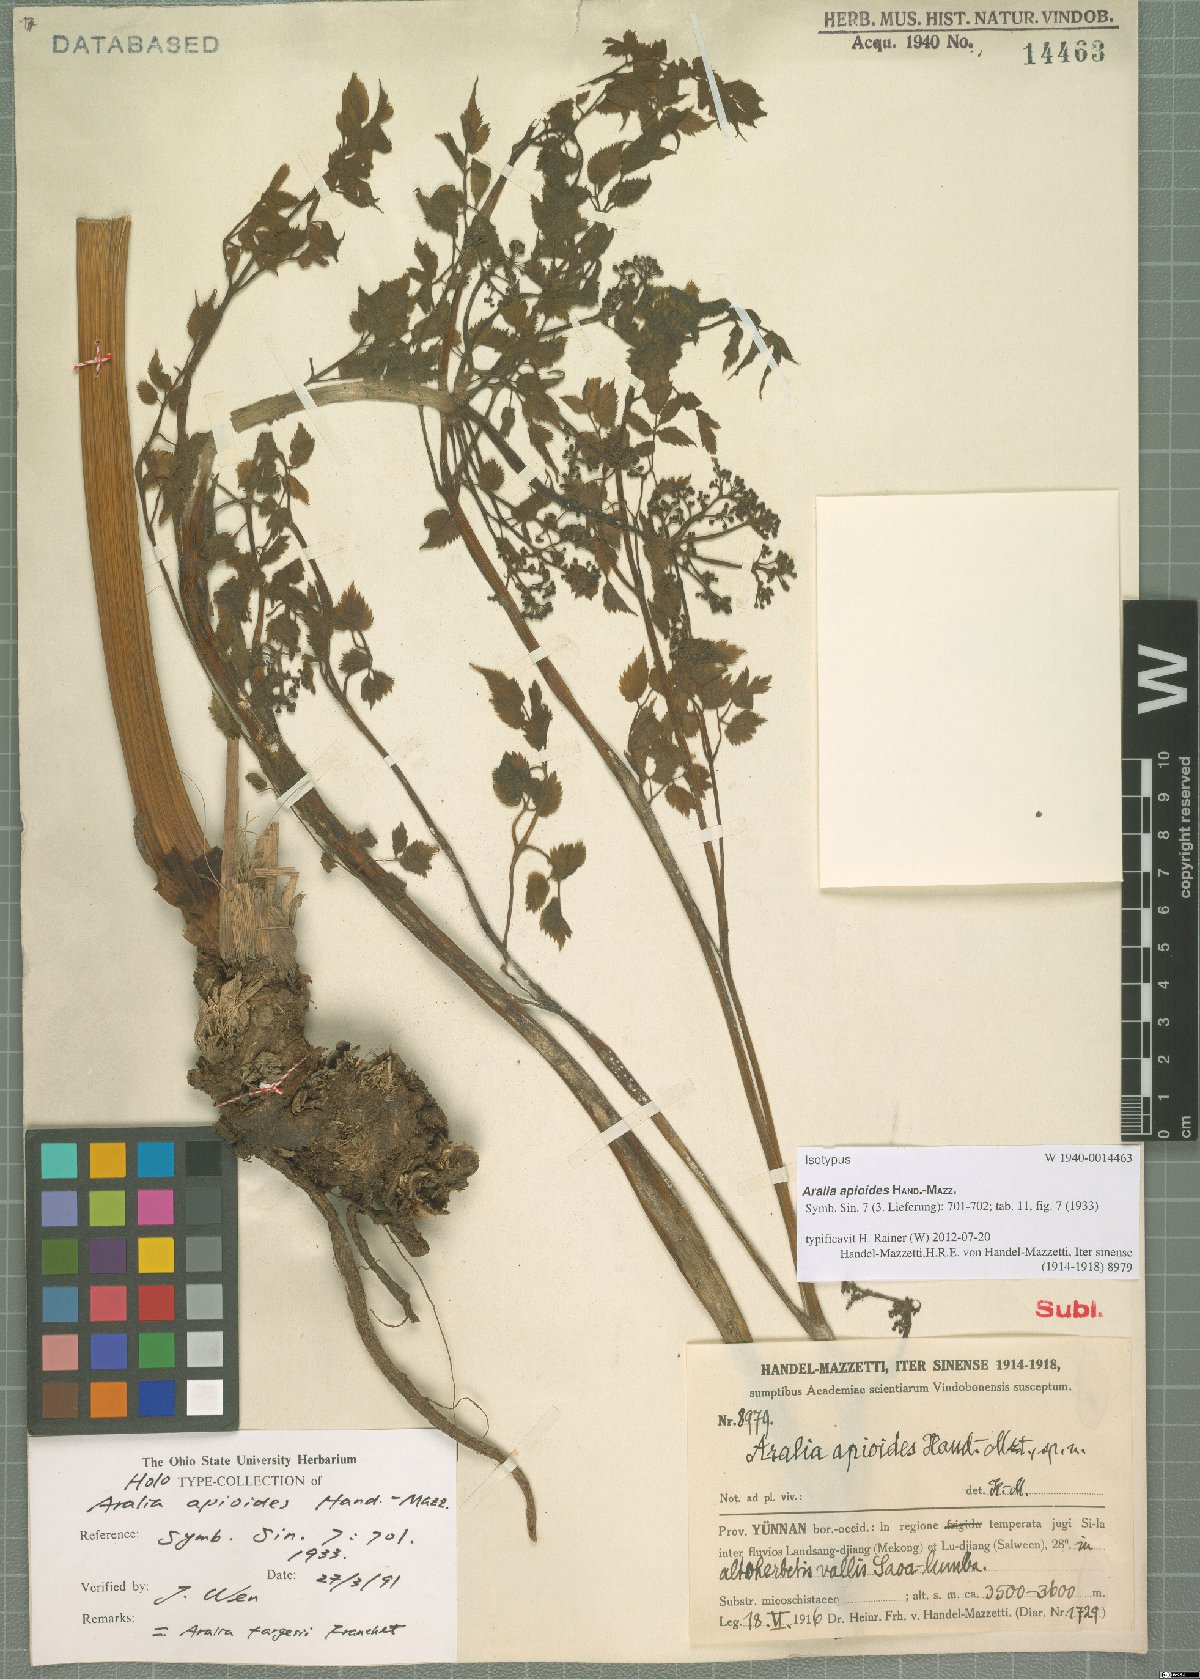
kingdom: Plantae
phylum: Tracheophyta
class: Magnoliopsida
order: Apiales
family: Araliaceae
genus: Aralia
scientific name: Aralia apioides
